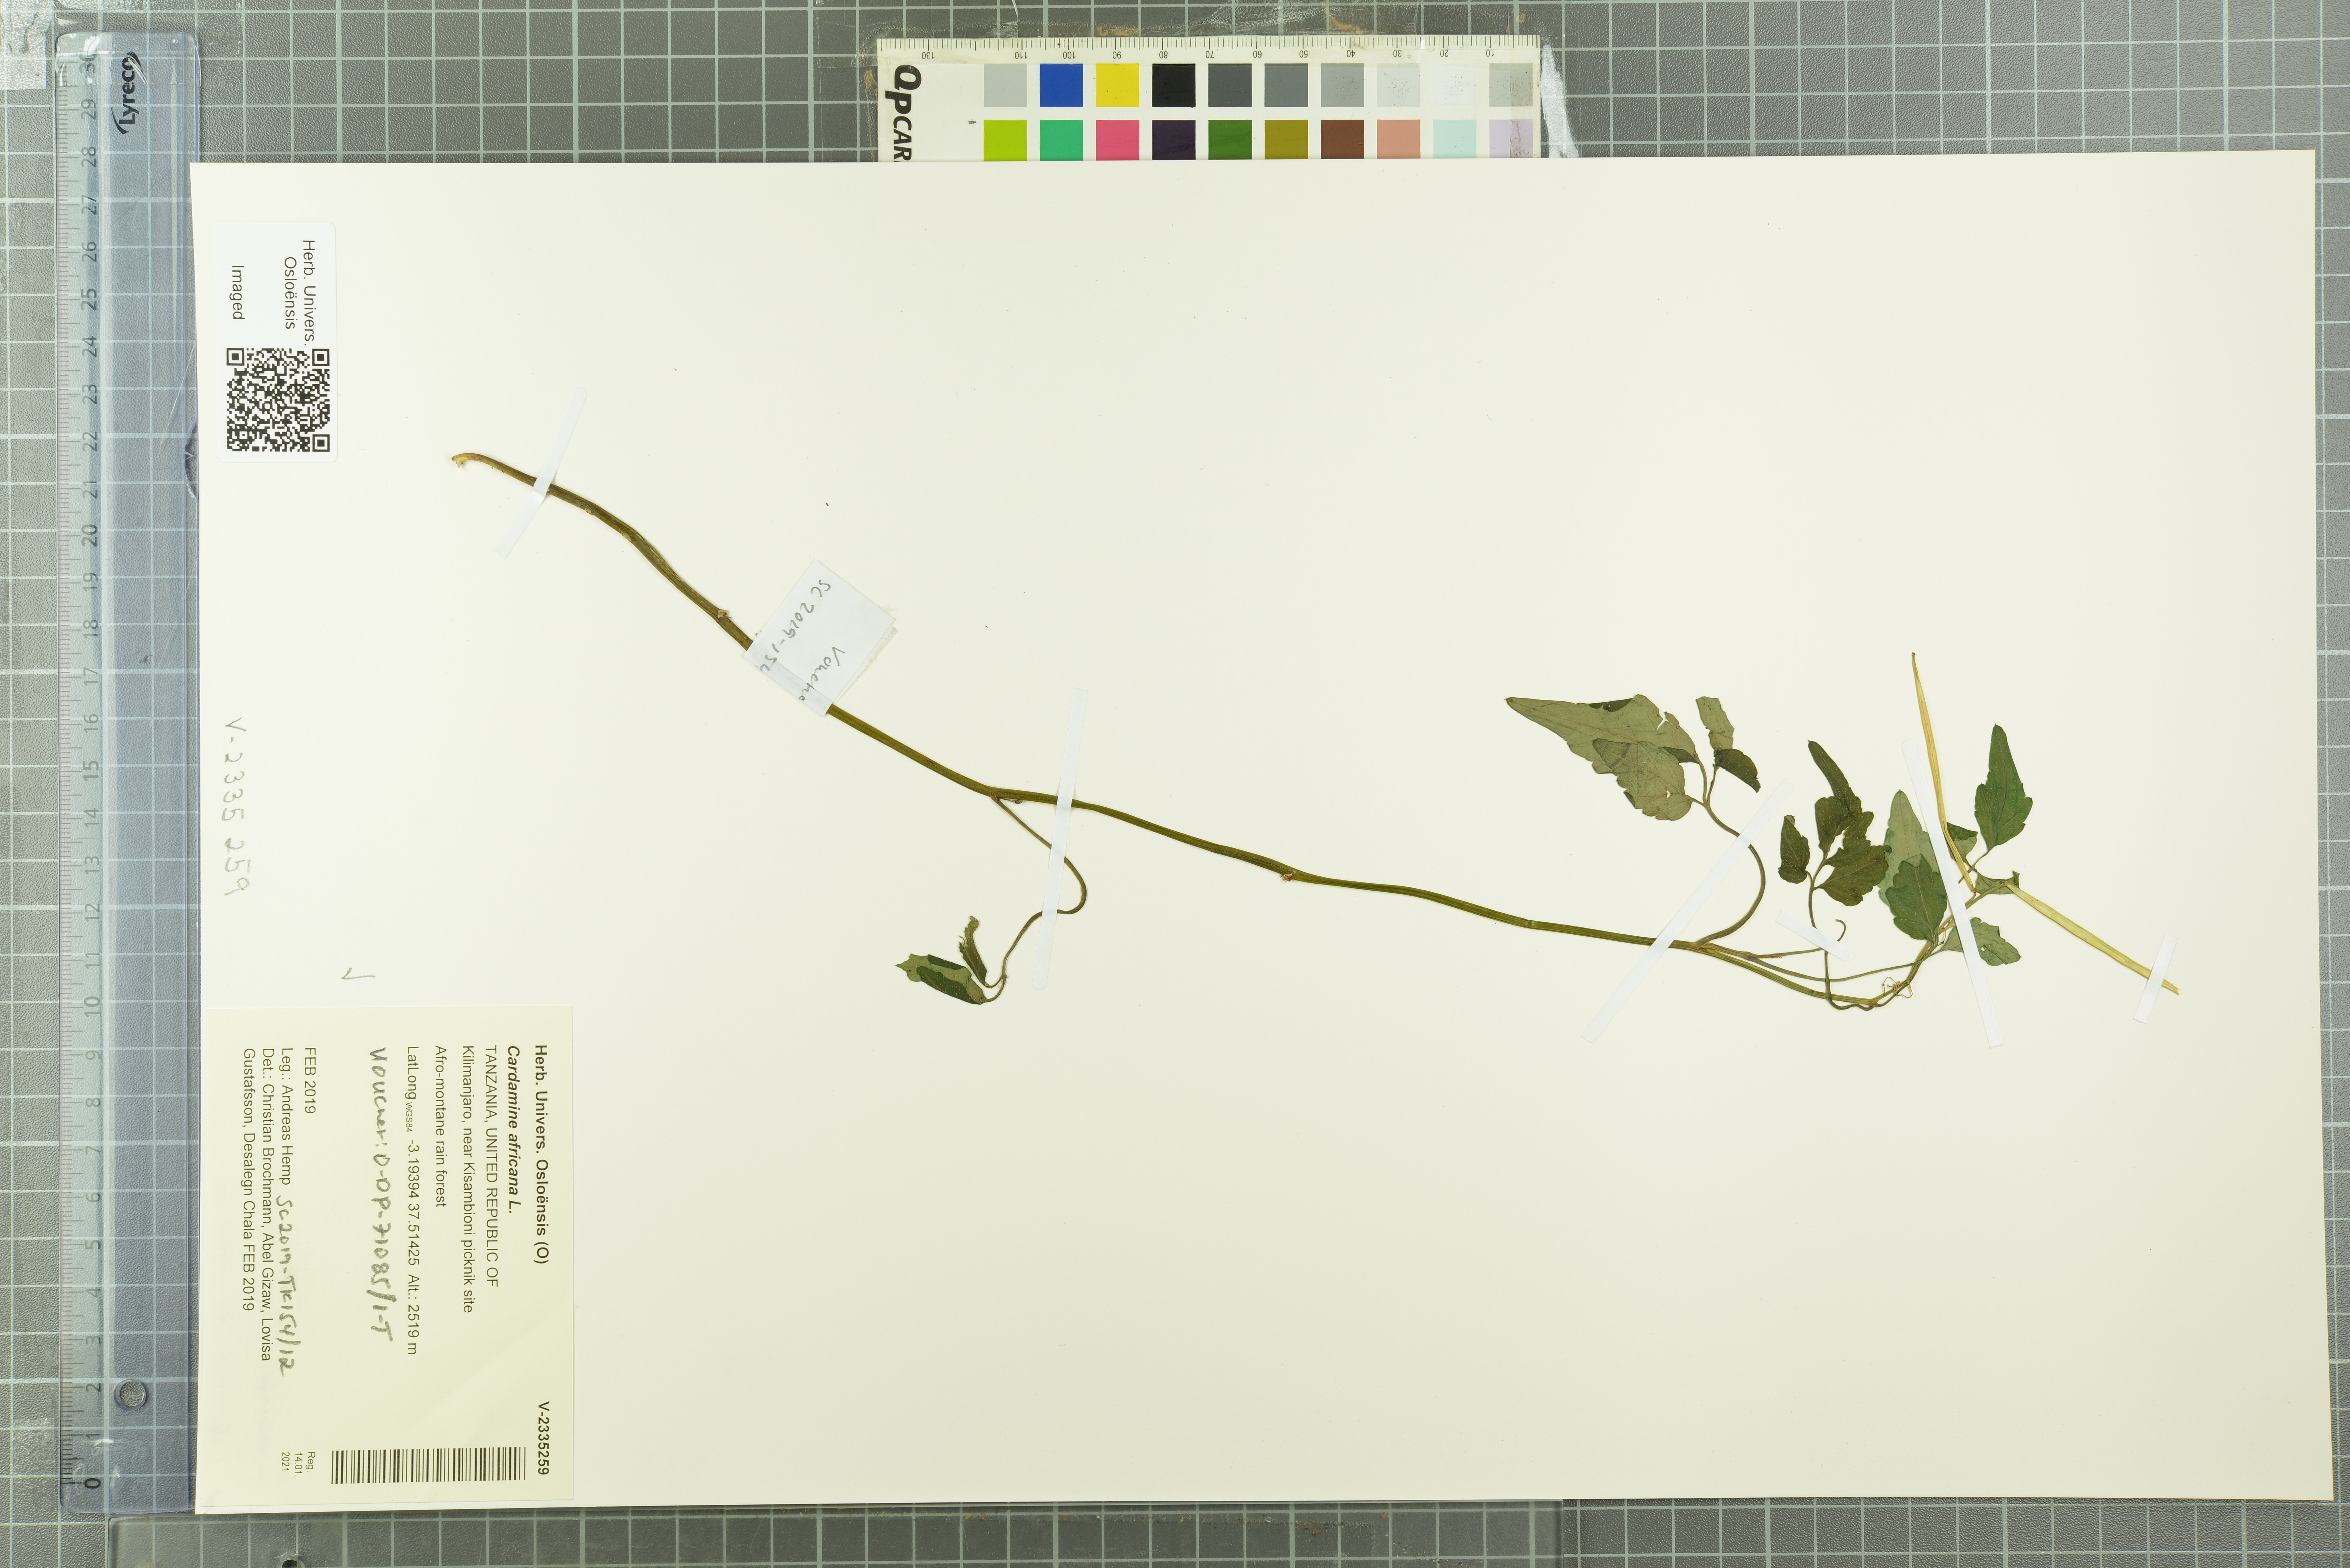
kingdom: Plantae
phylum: Tracheophyta
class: Magnoliopsida
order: Brassicales
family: Brassicaceae
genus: Cardamine
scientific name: Cardamine africana
